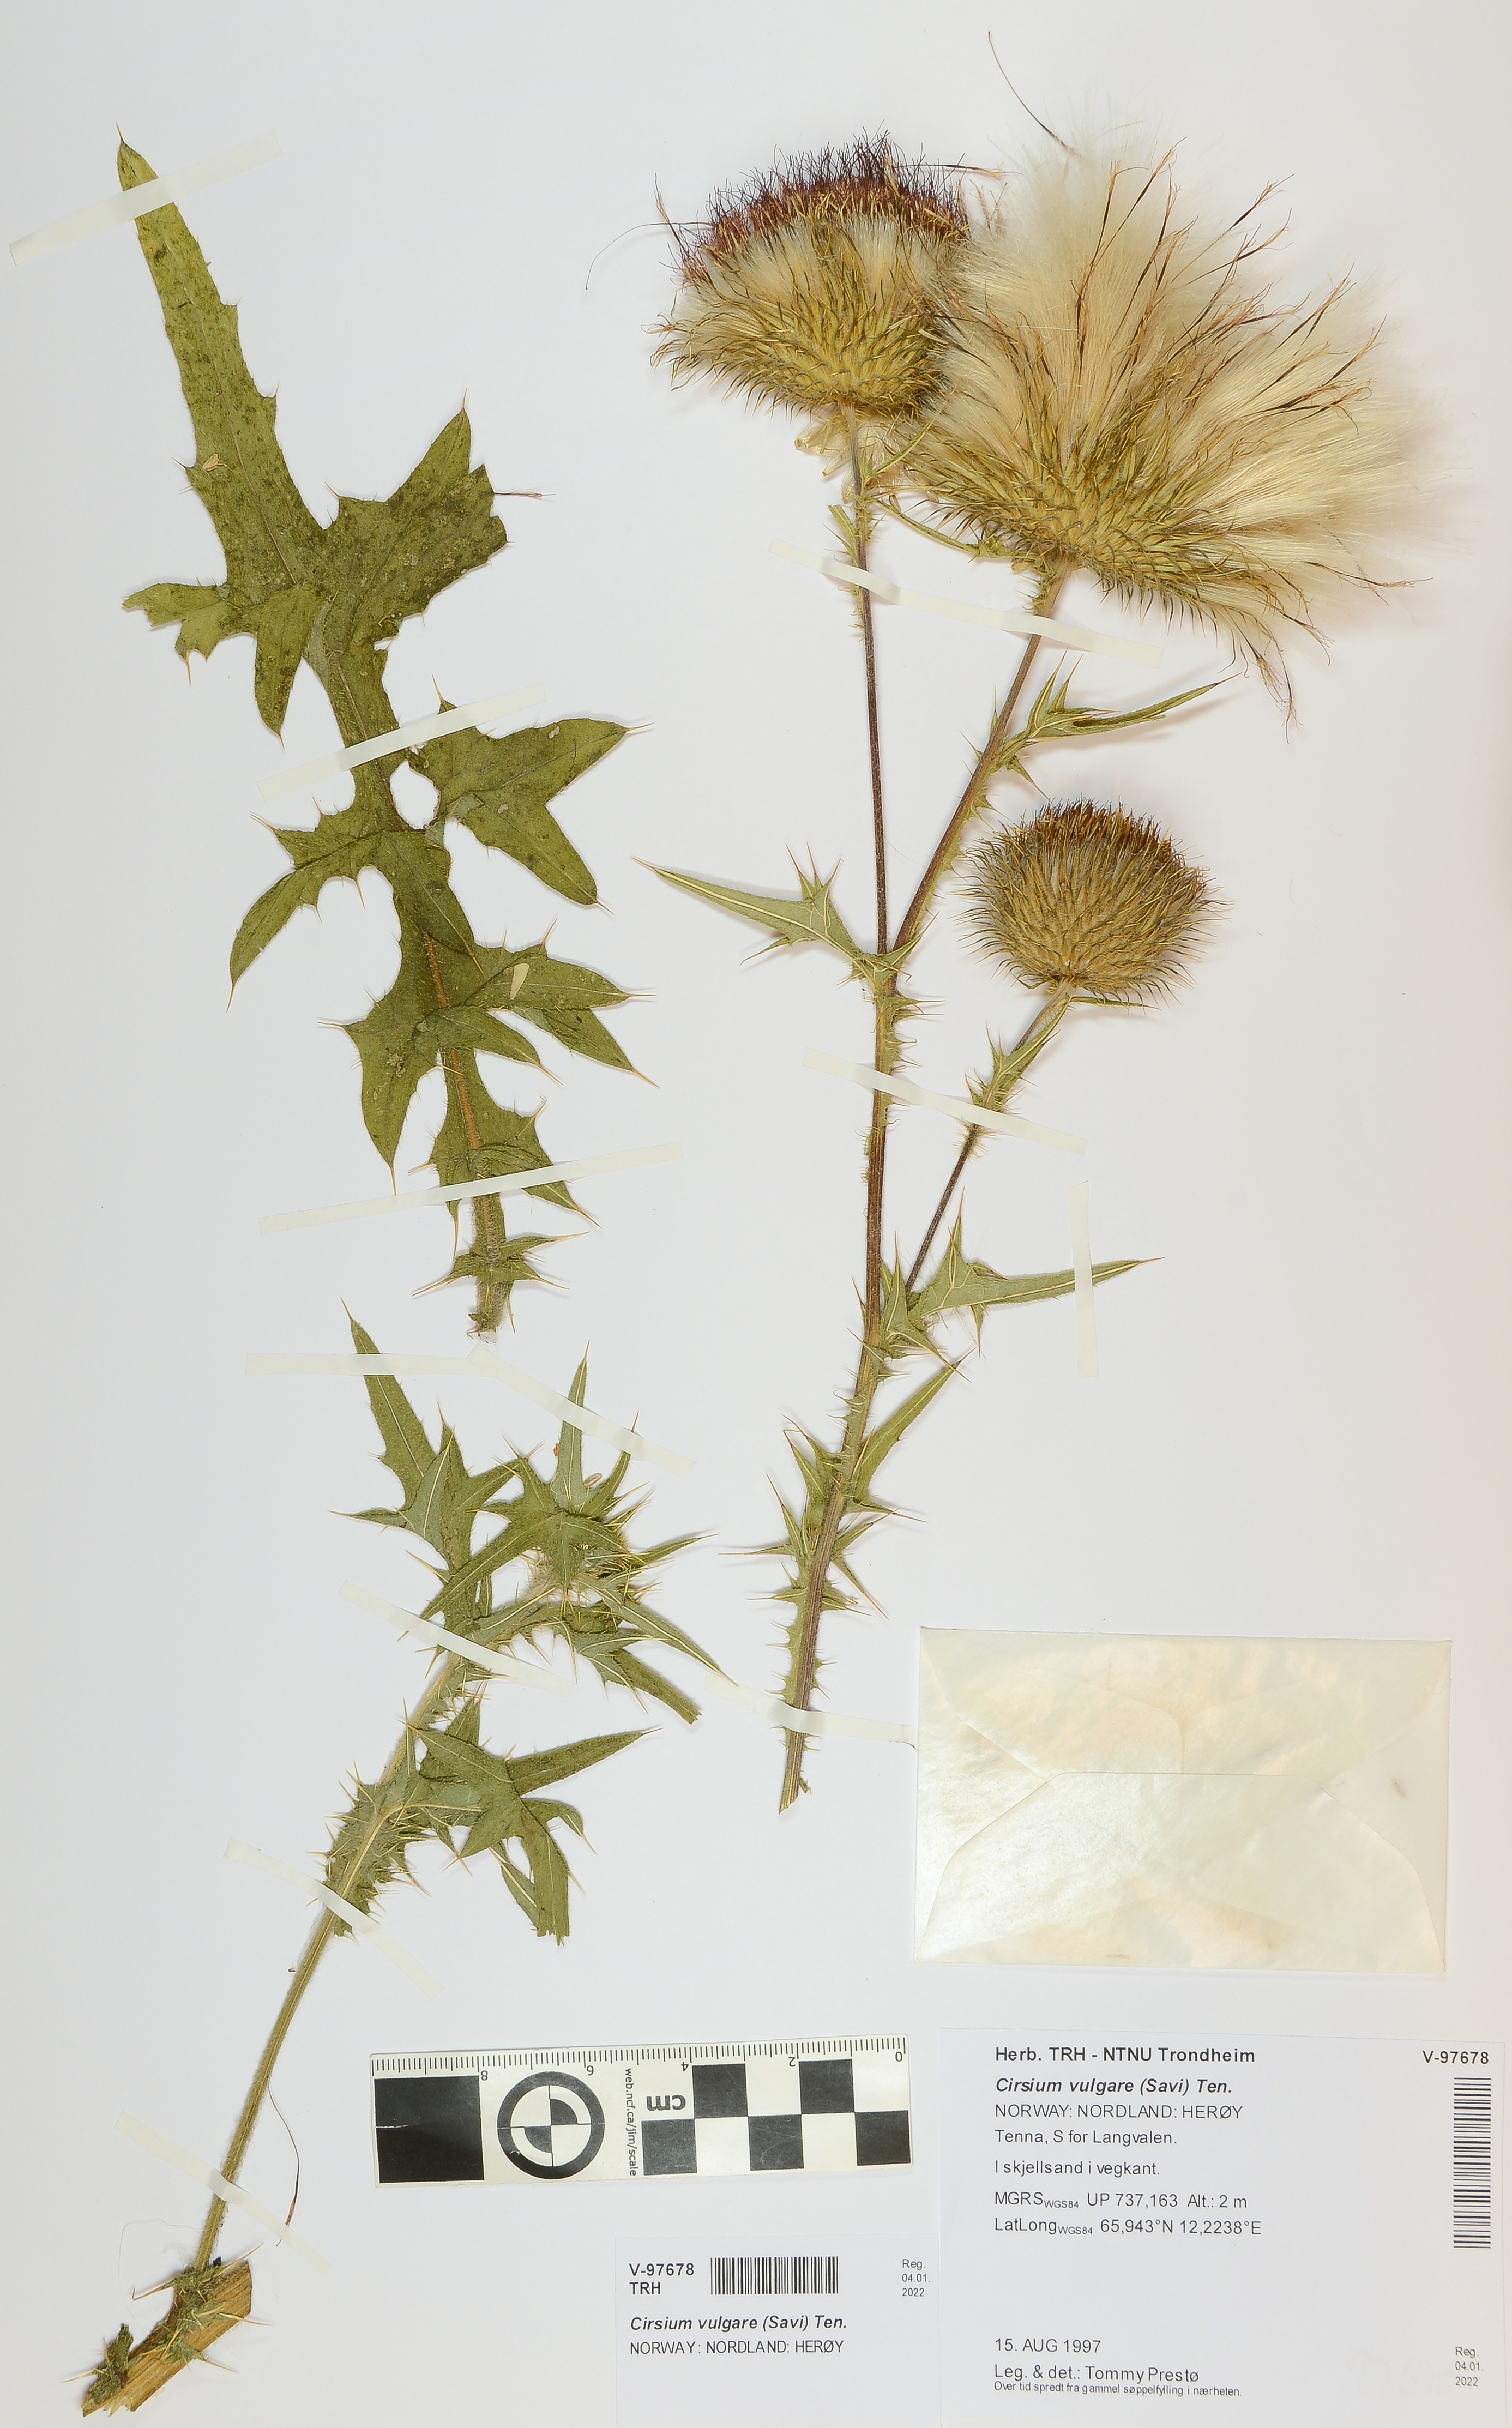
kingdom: Plantae
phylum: Tracheophyta
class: Magnoliopsida
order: Asterales
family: Asteraceae
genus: Cirsium
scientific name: Cirsium vulgare
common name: Bull thistle
